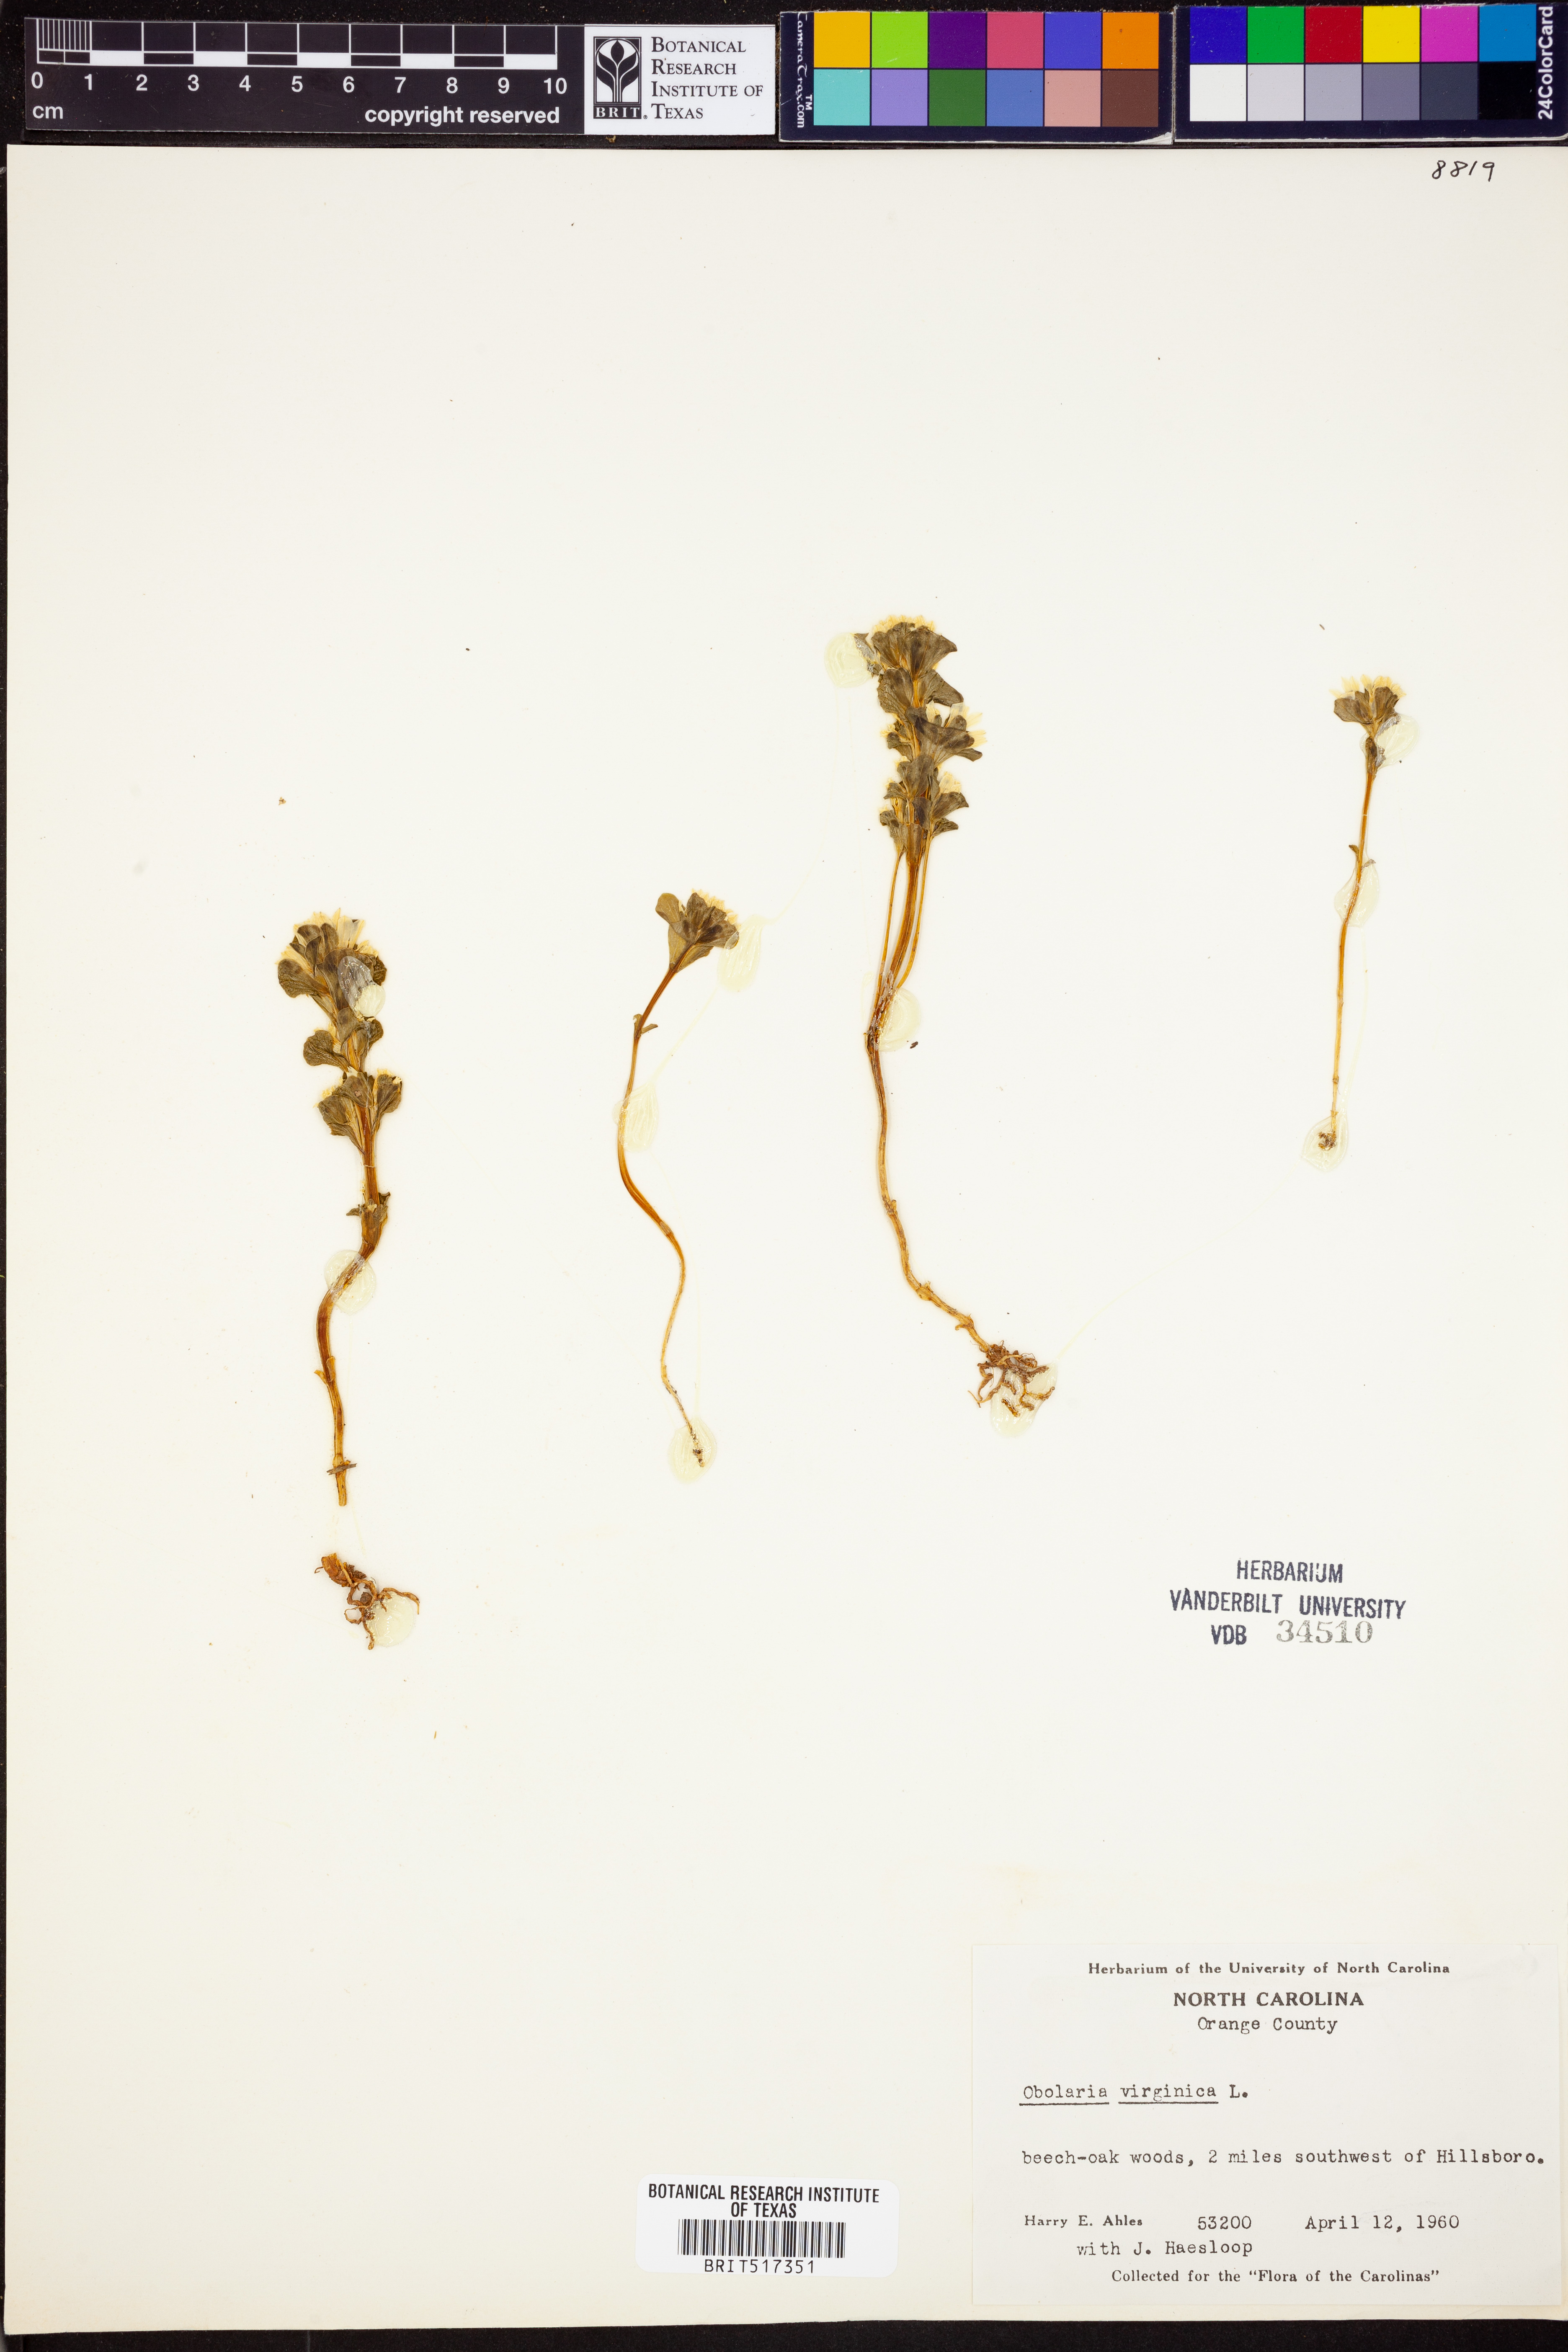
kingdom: Plantae
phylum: Tracheophyta
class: Magnoliopsida
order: Gentianales
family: Gentianaceae
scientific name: Gentianaceae
